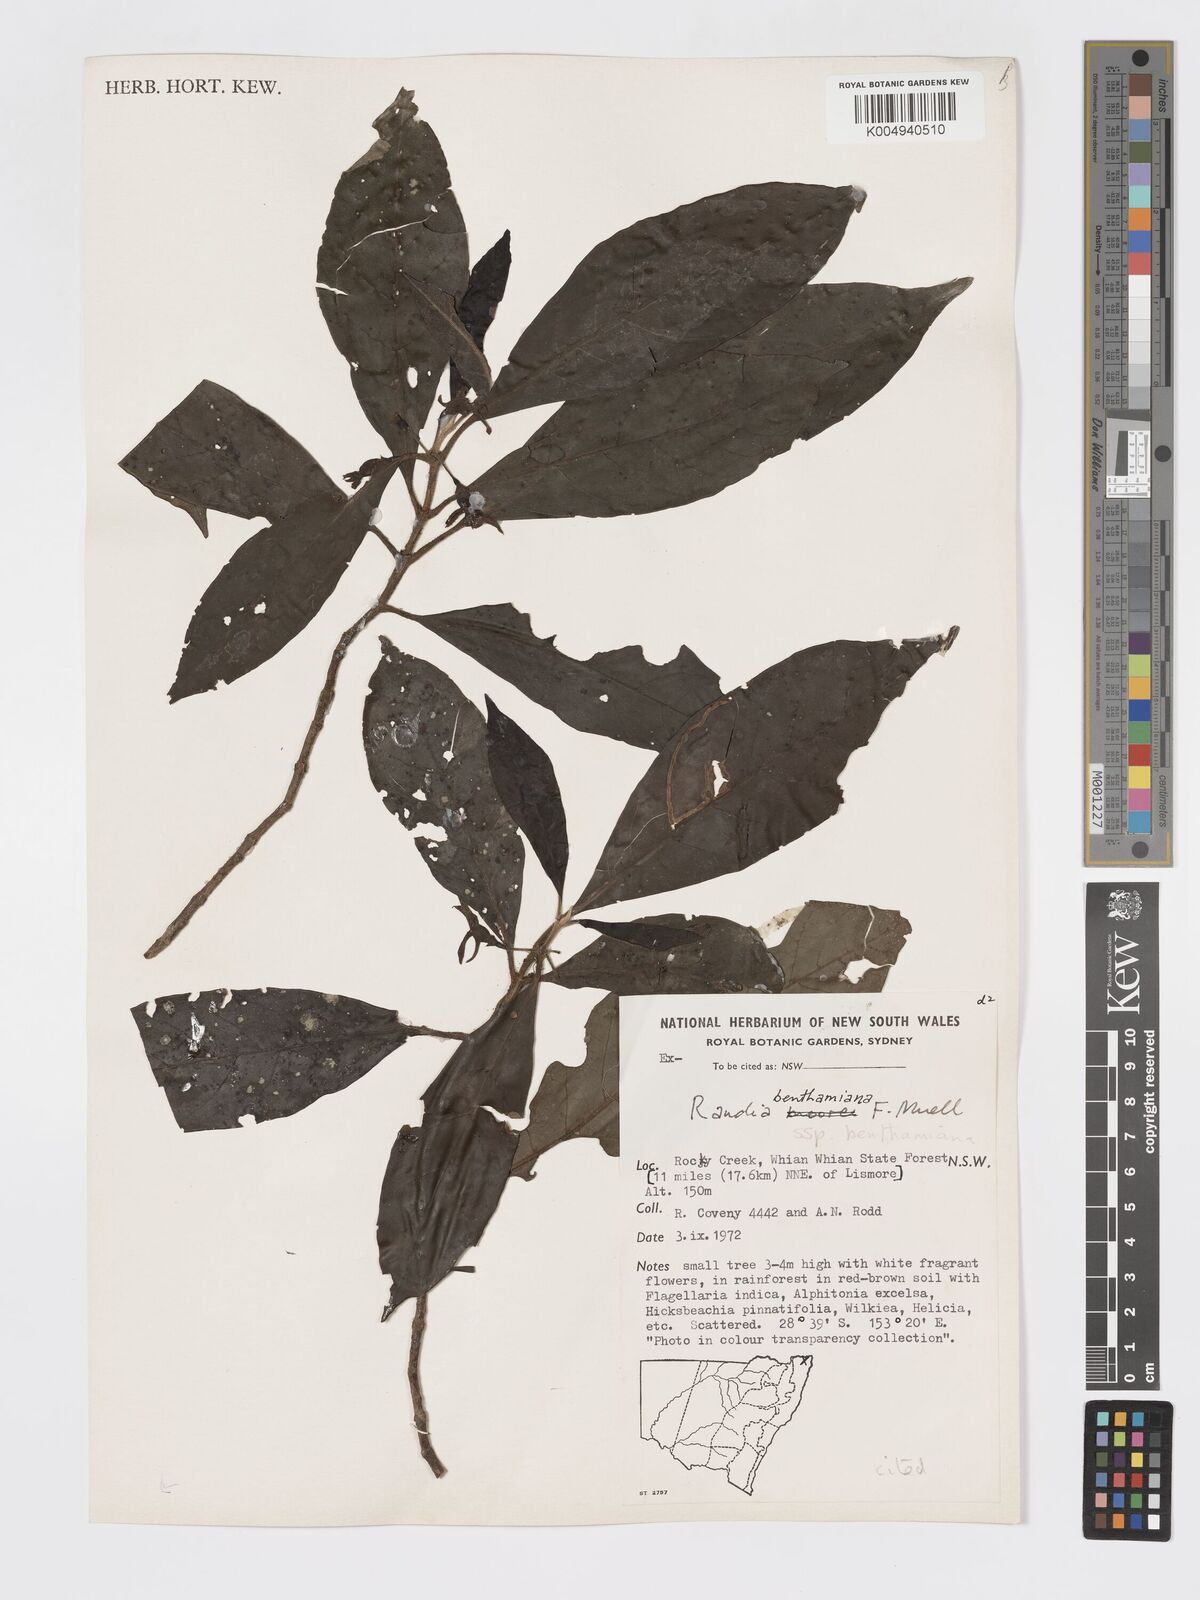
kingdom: Plantae
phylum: Tracheophyta
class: Magnoliopsida
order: Gentianales
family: Rubiaceae
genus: Atractocarpus
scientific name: Atractocarpus benthamianus
